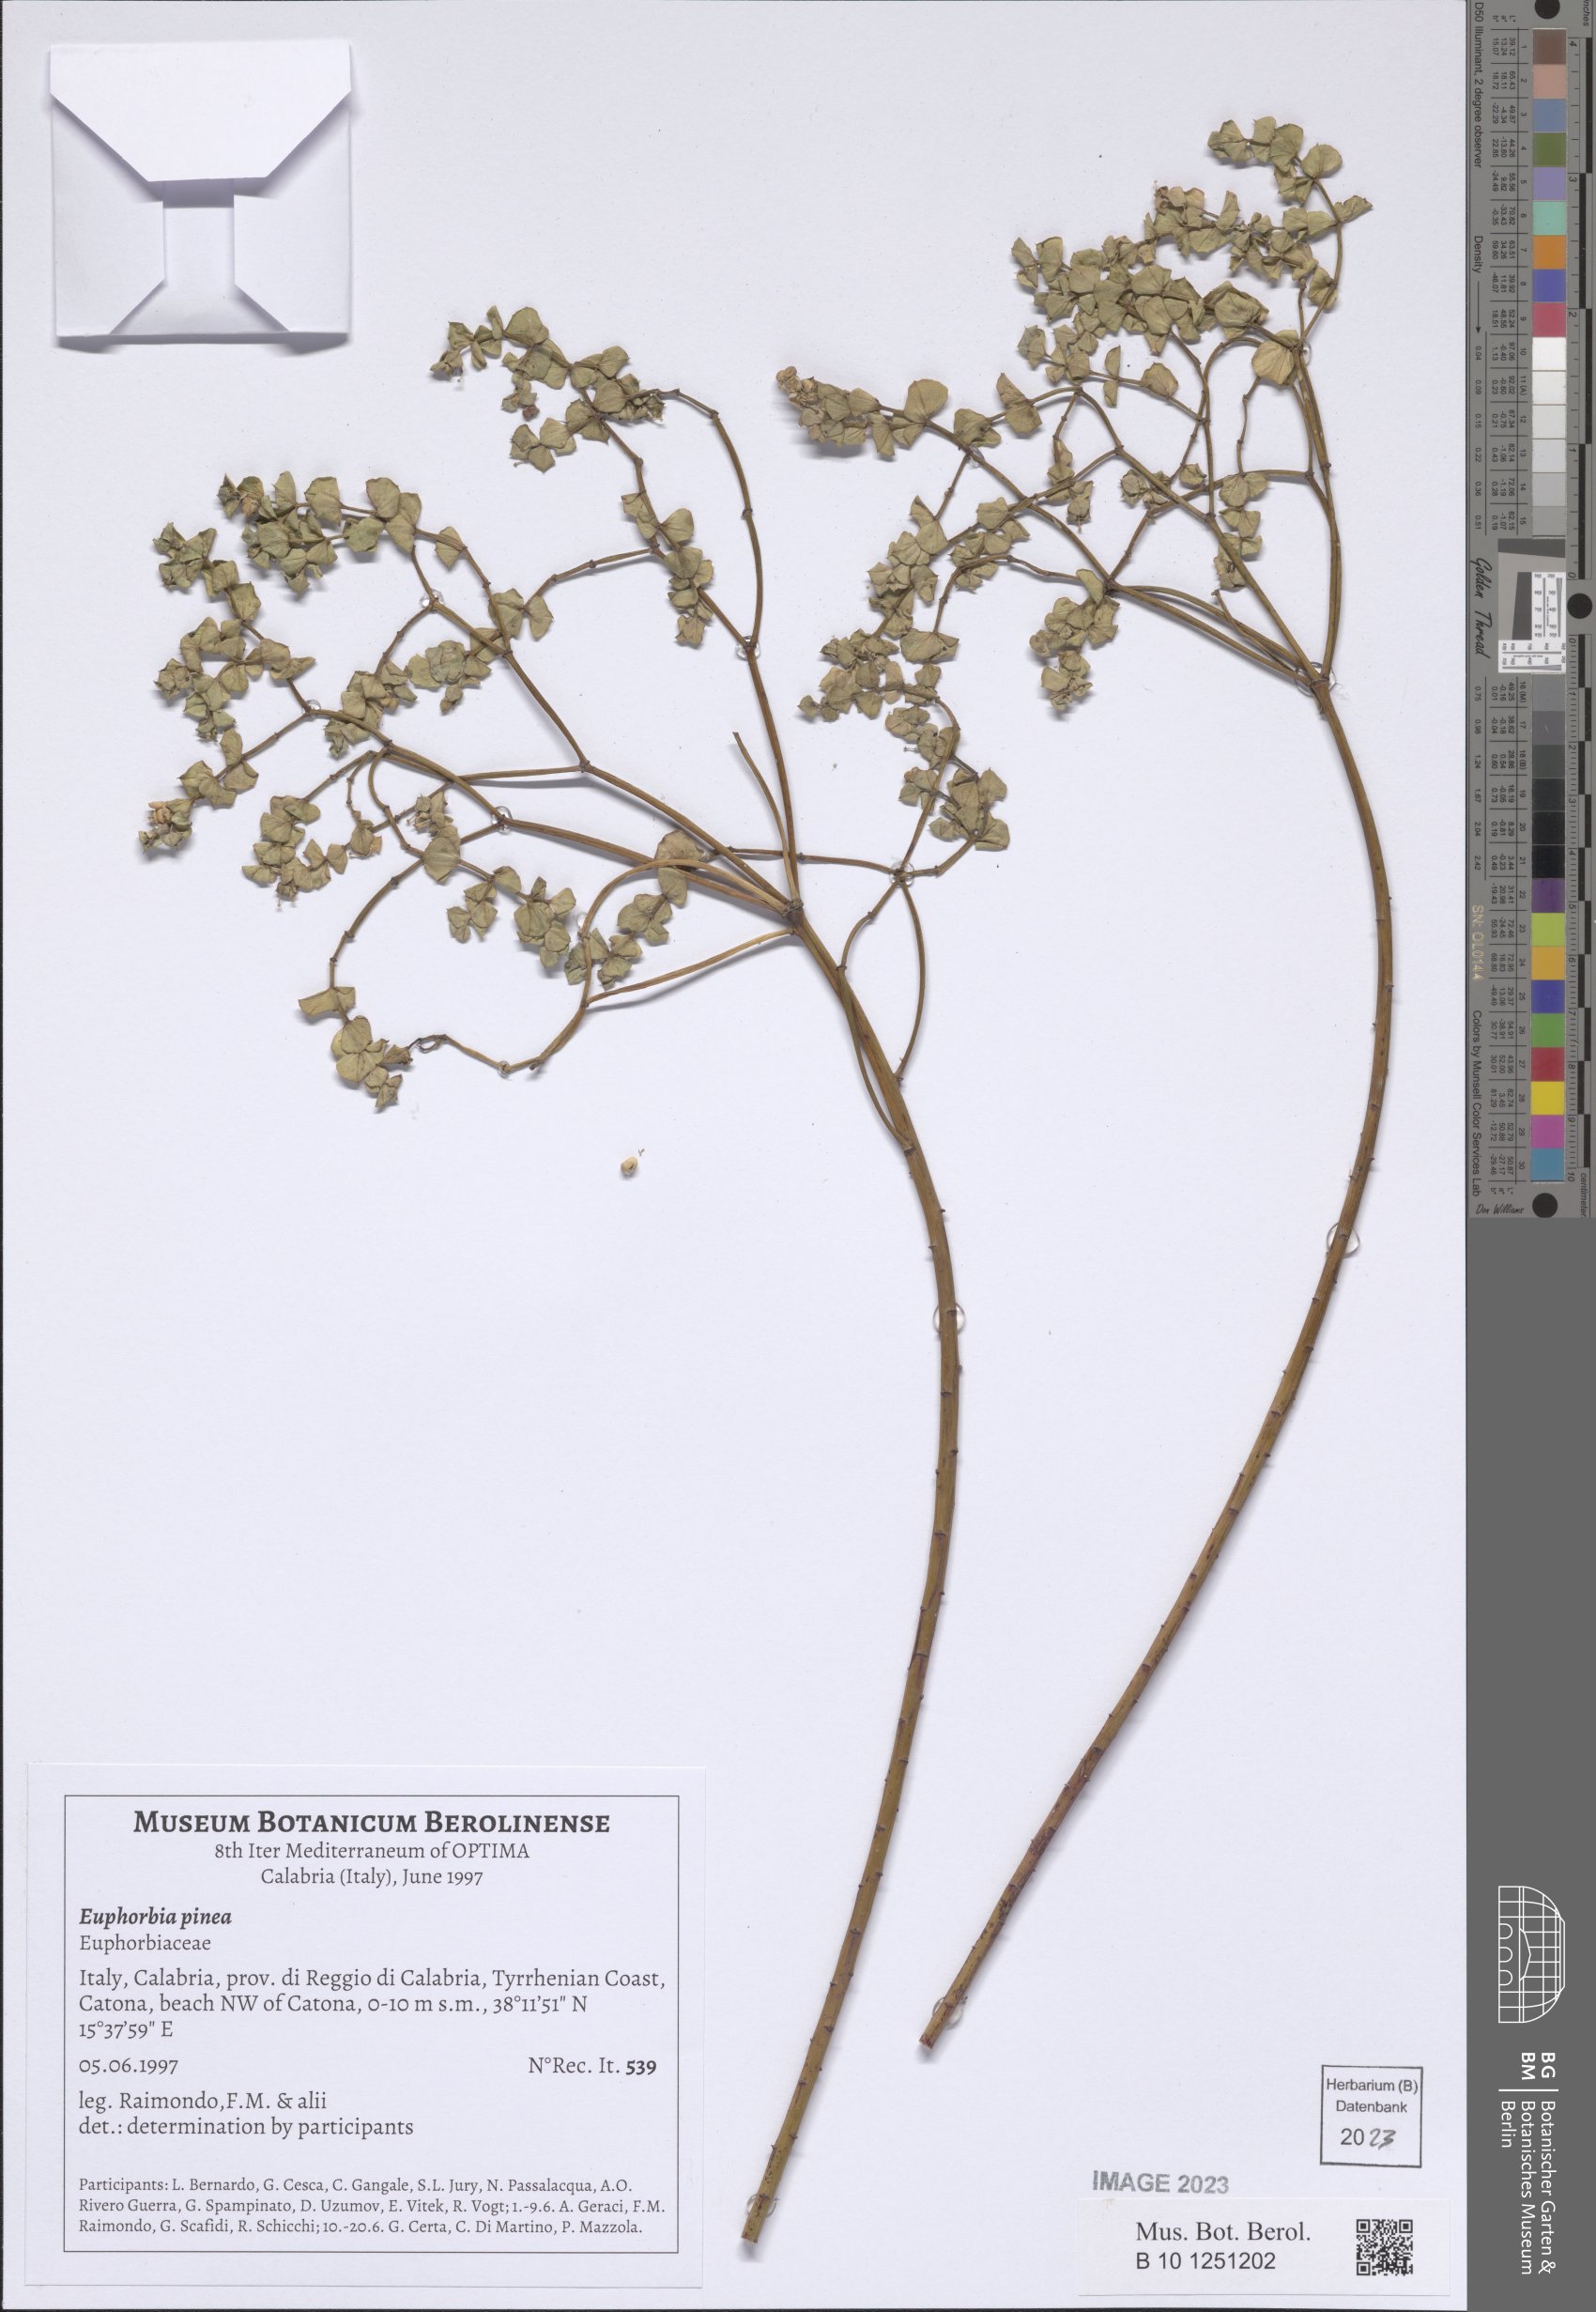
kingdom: Plantae
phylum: Tracheophyta
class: Magnoliopsida
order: Malpighiales
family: Euphorbiaceae
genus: Euphorbia
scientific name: Euphorbia segetalis
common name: Corn spurge
